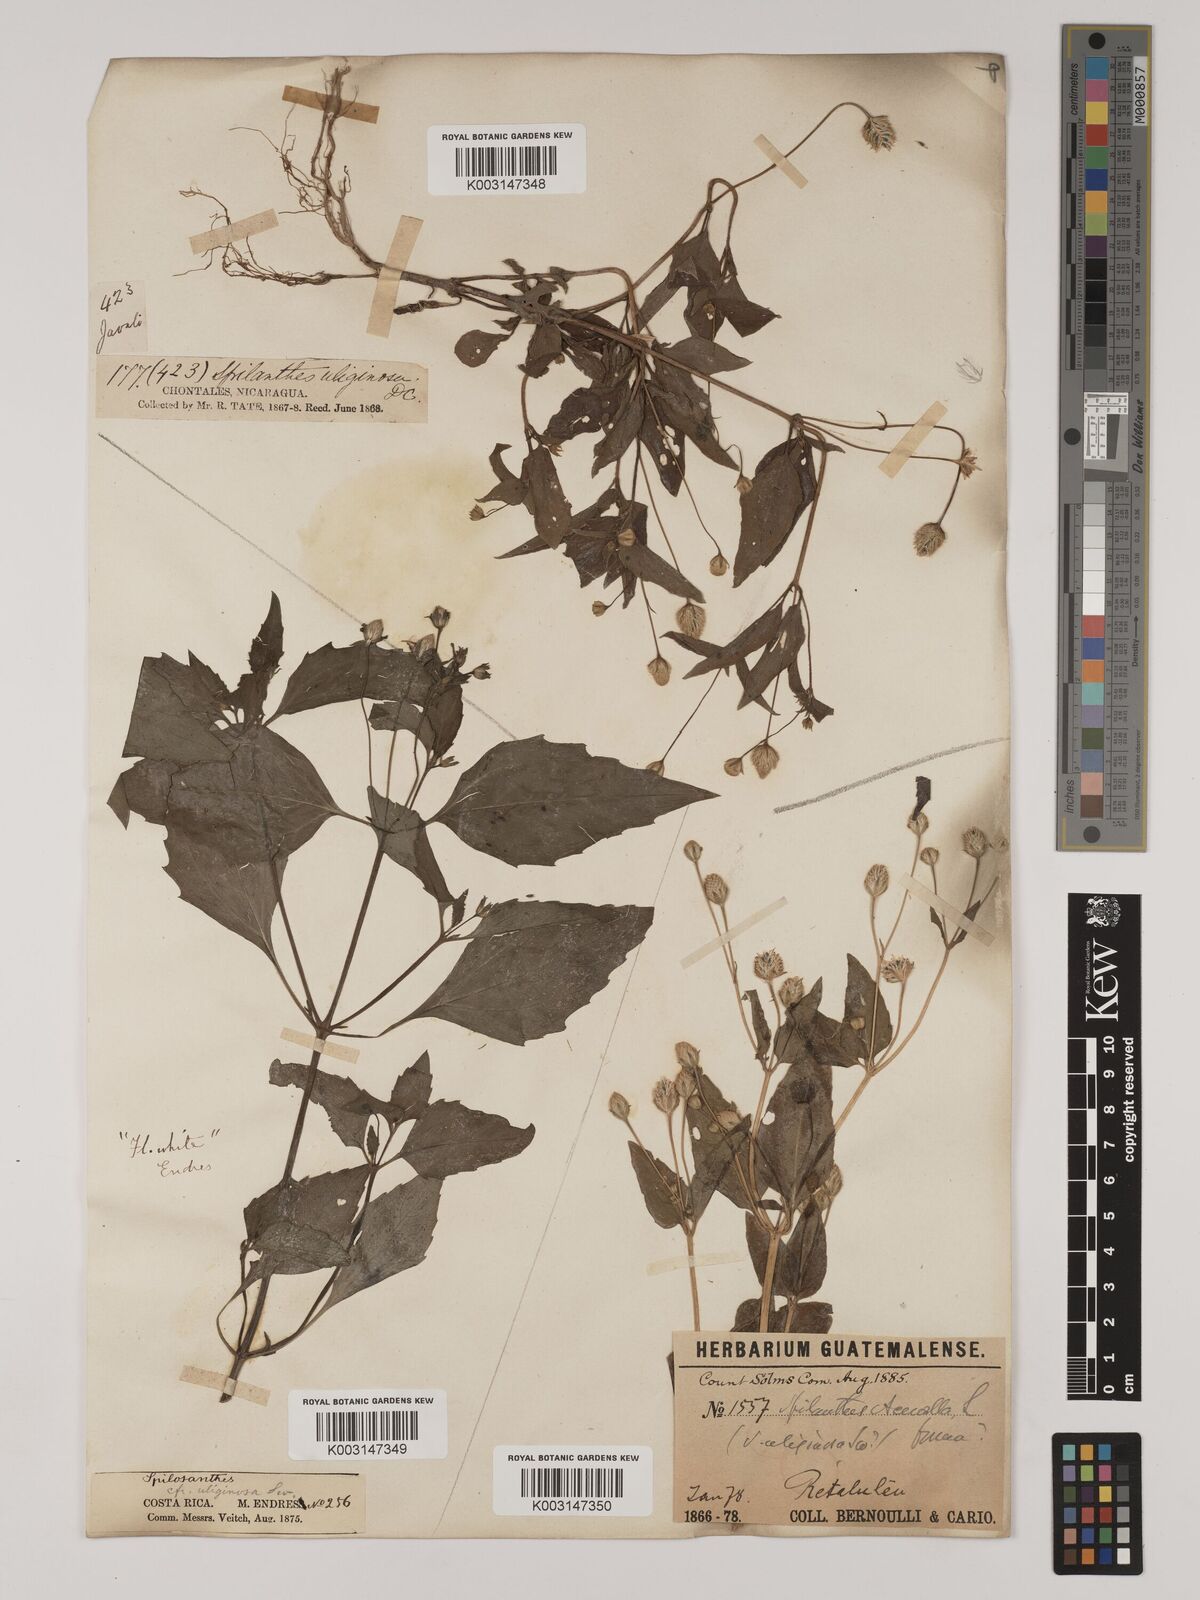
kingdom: Plantae
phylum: Tracheophyta
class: Magnoliopsida
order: Asterales
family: Asteraceae
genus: Acmella
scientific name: Acmella radicans
